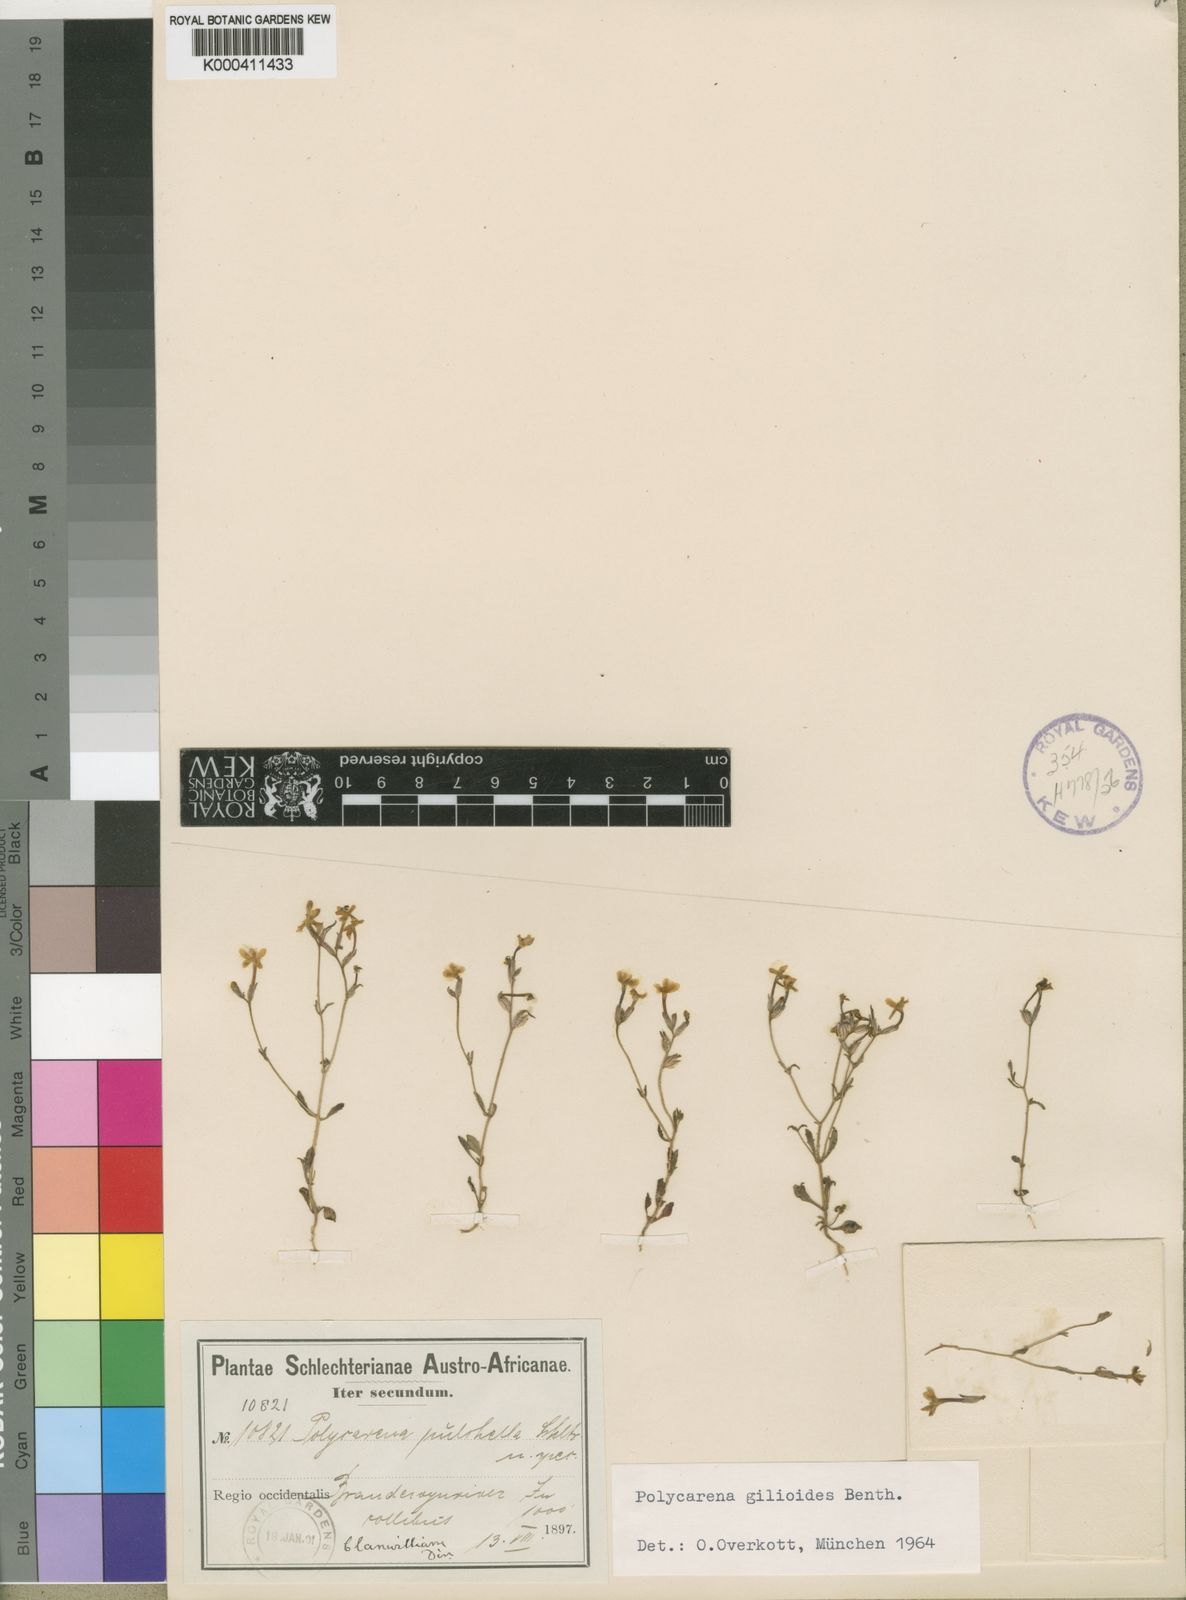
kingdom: Plantae
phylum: Tracheophyta
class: Magnoliopsida
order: Lamiales
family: Scrophulariaceae
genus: Polycarena
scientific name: Polycarena gilioides
